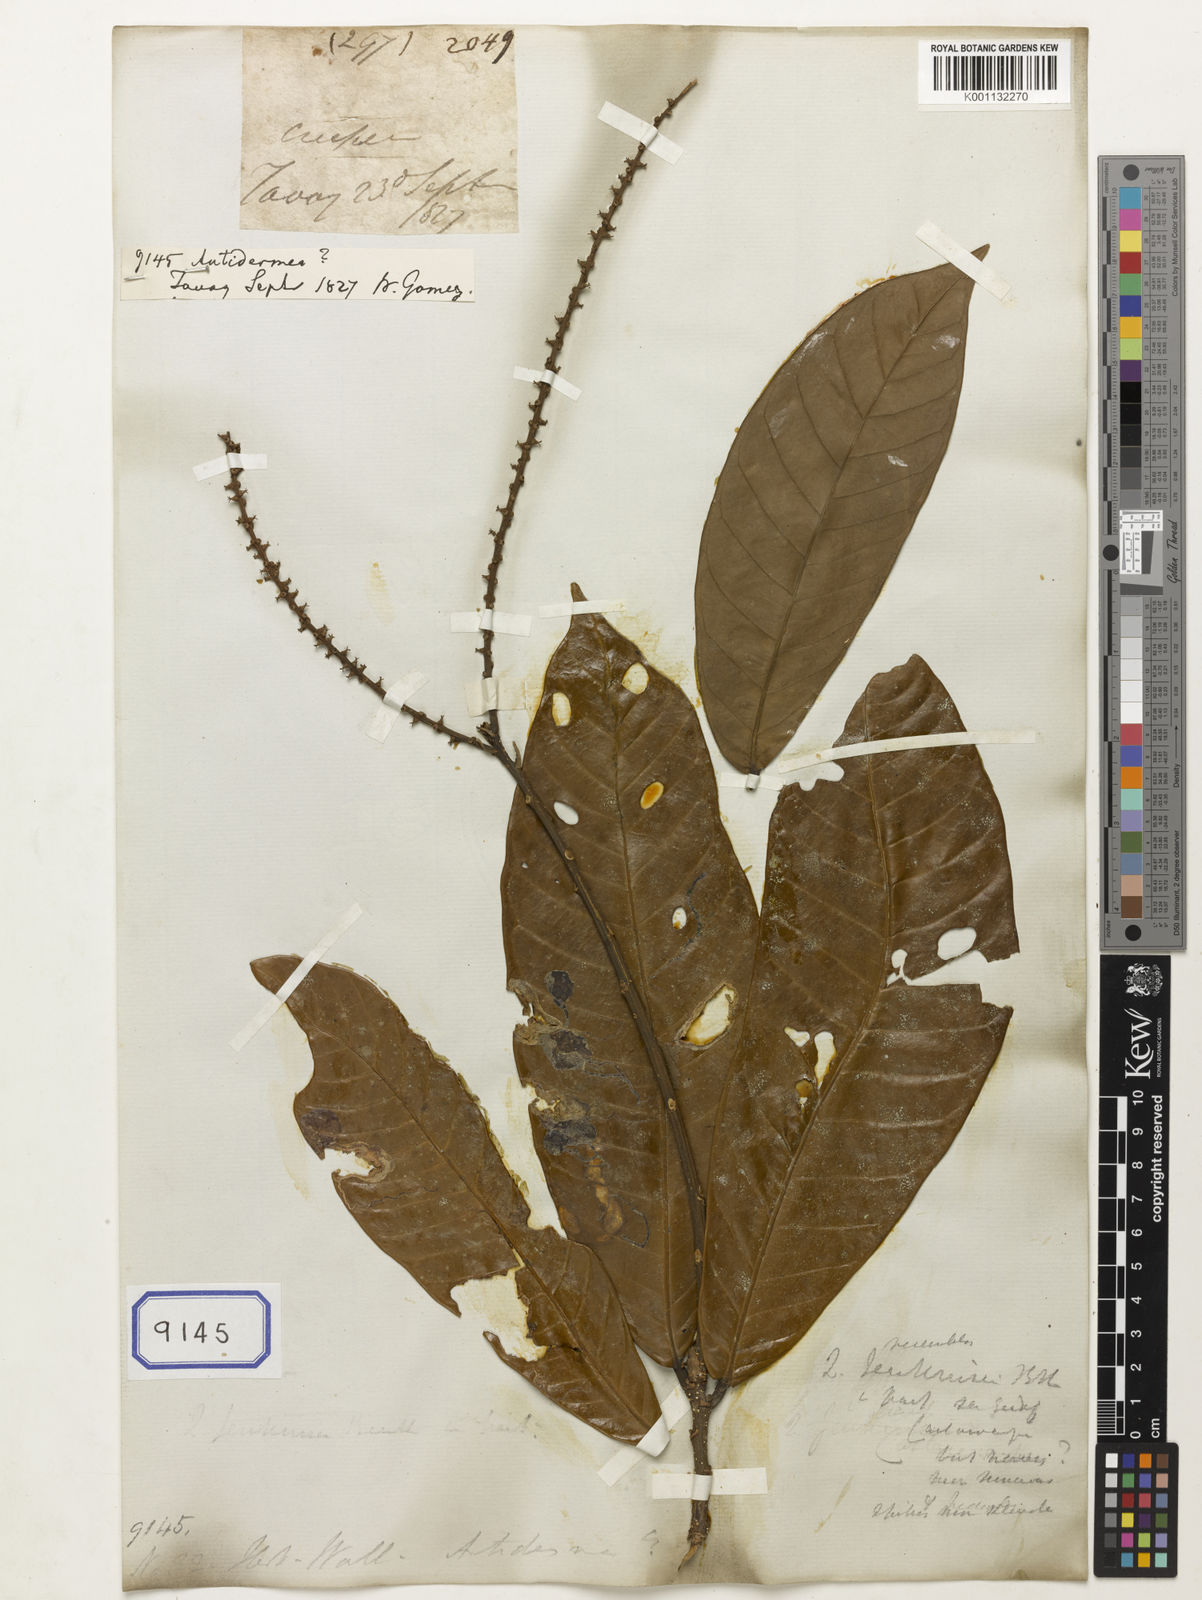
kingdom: Plantae
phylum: Tracheophyta
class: Magnoliopsida
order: Malpighiales
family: Phyllanthaceae
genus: Antidesma
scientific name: Antidesma
